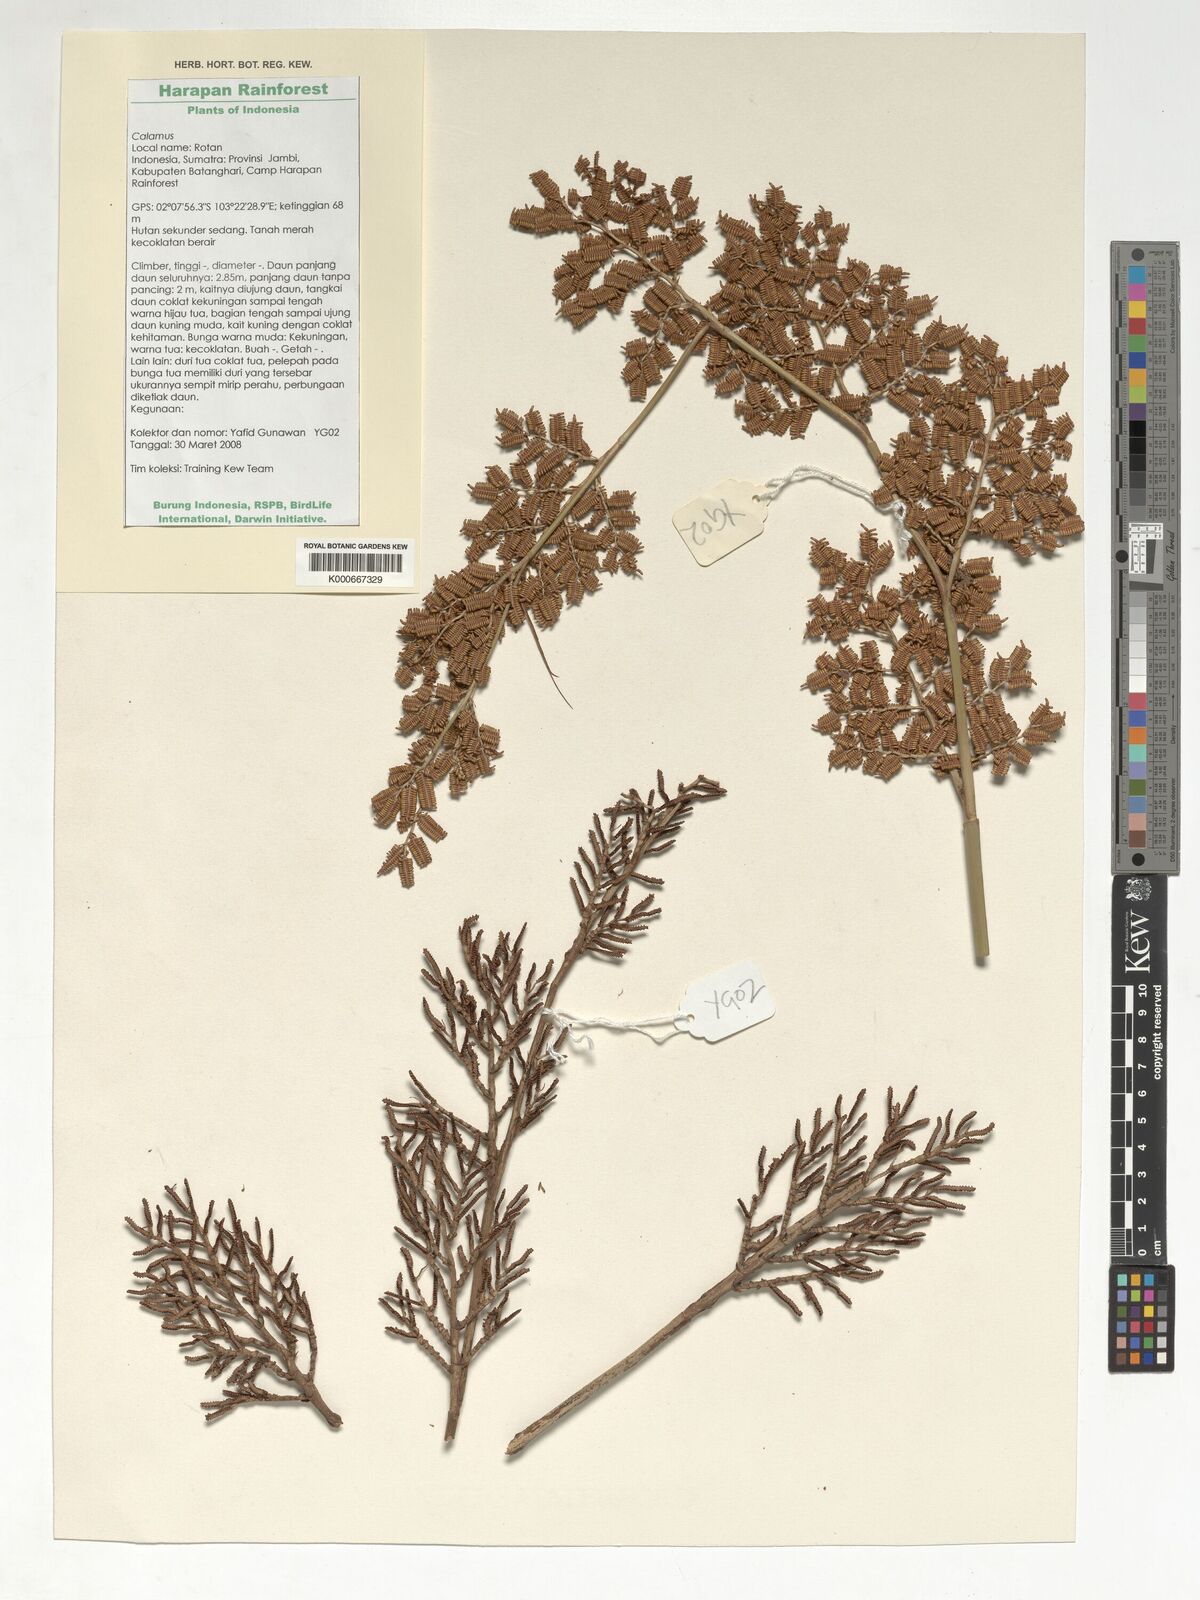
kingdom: Plantae
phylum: Tracheophyta
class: Liliopsida
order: Arecales
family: Arecaceae
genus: Calamus
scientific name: Calamus
